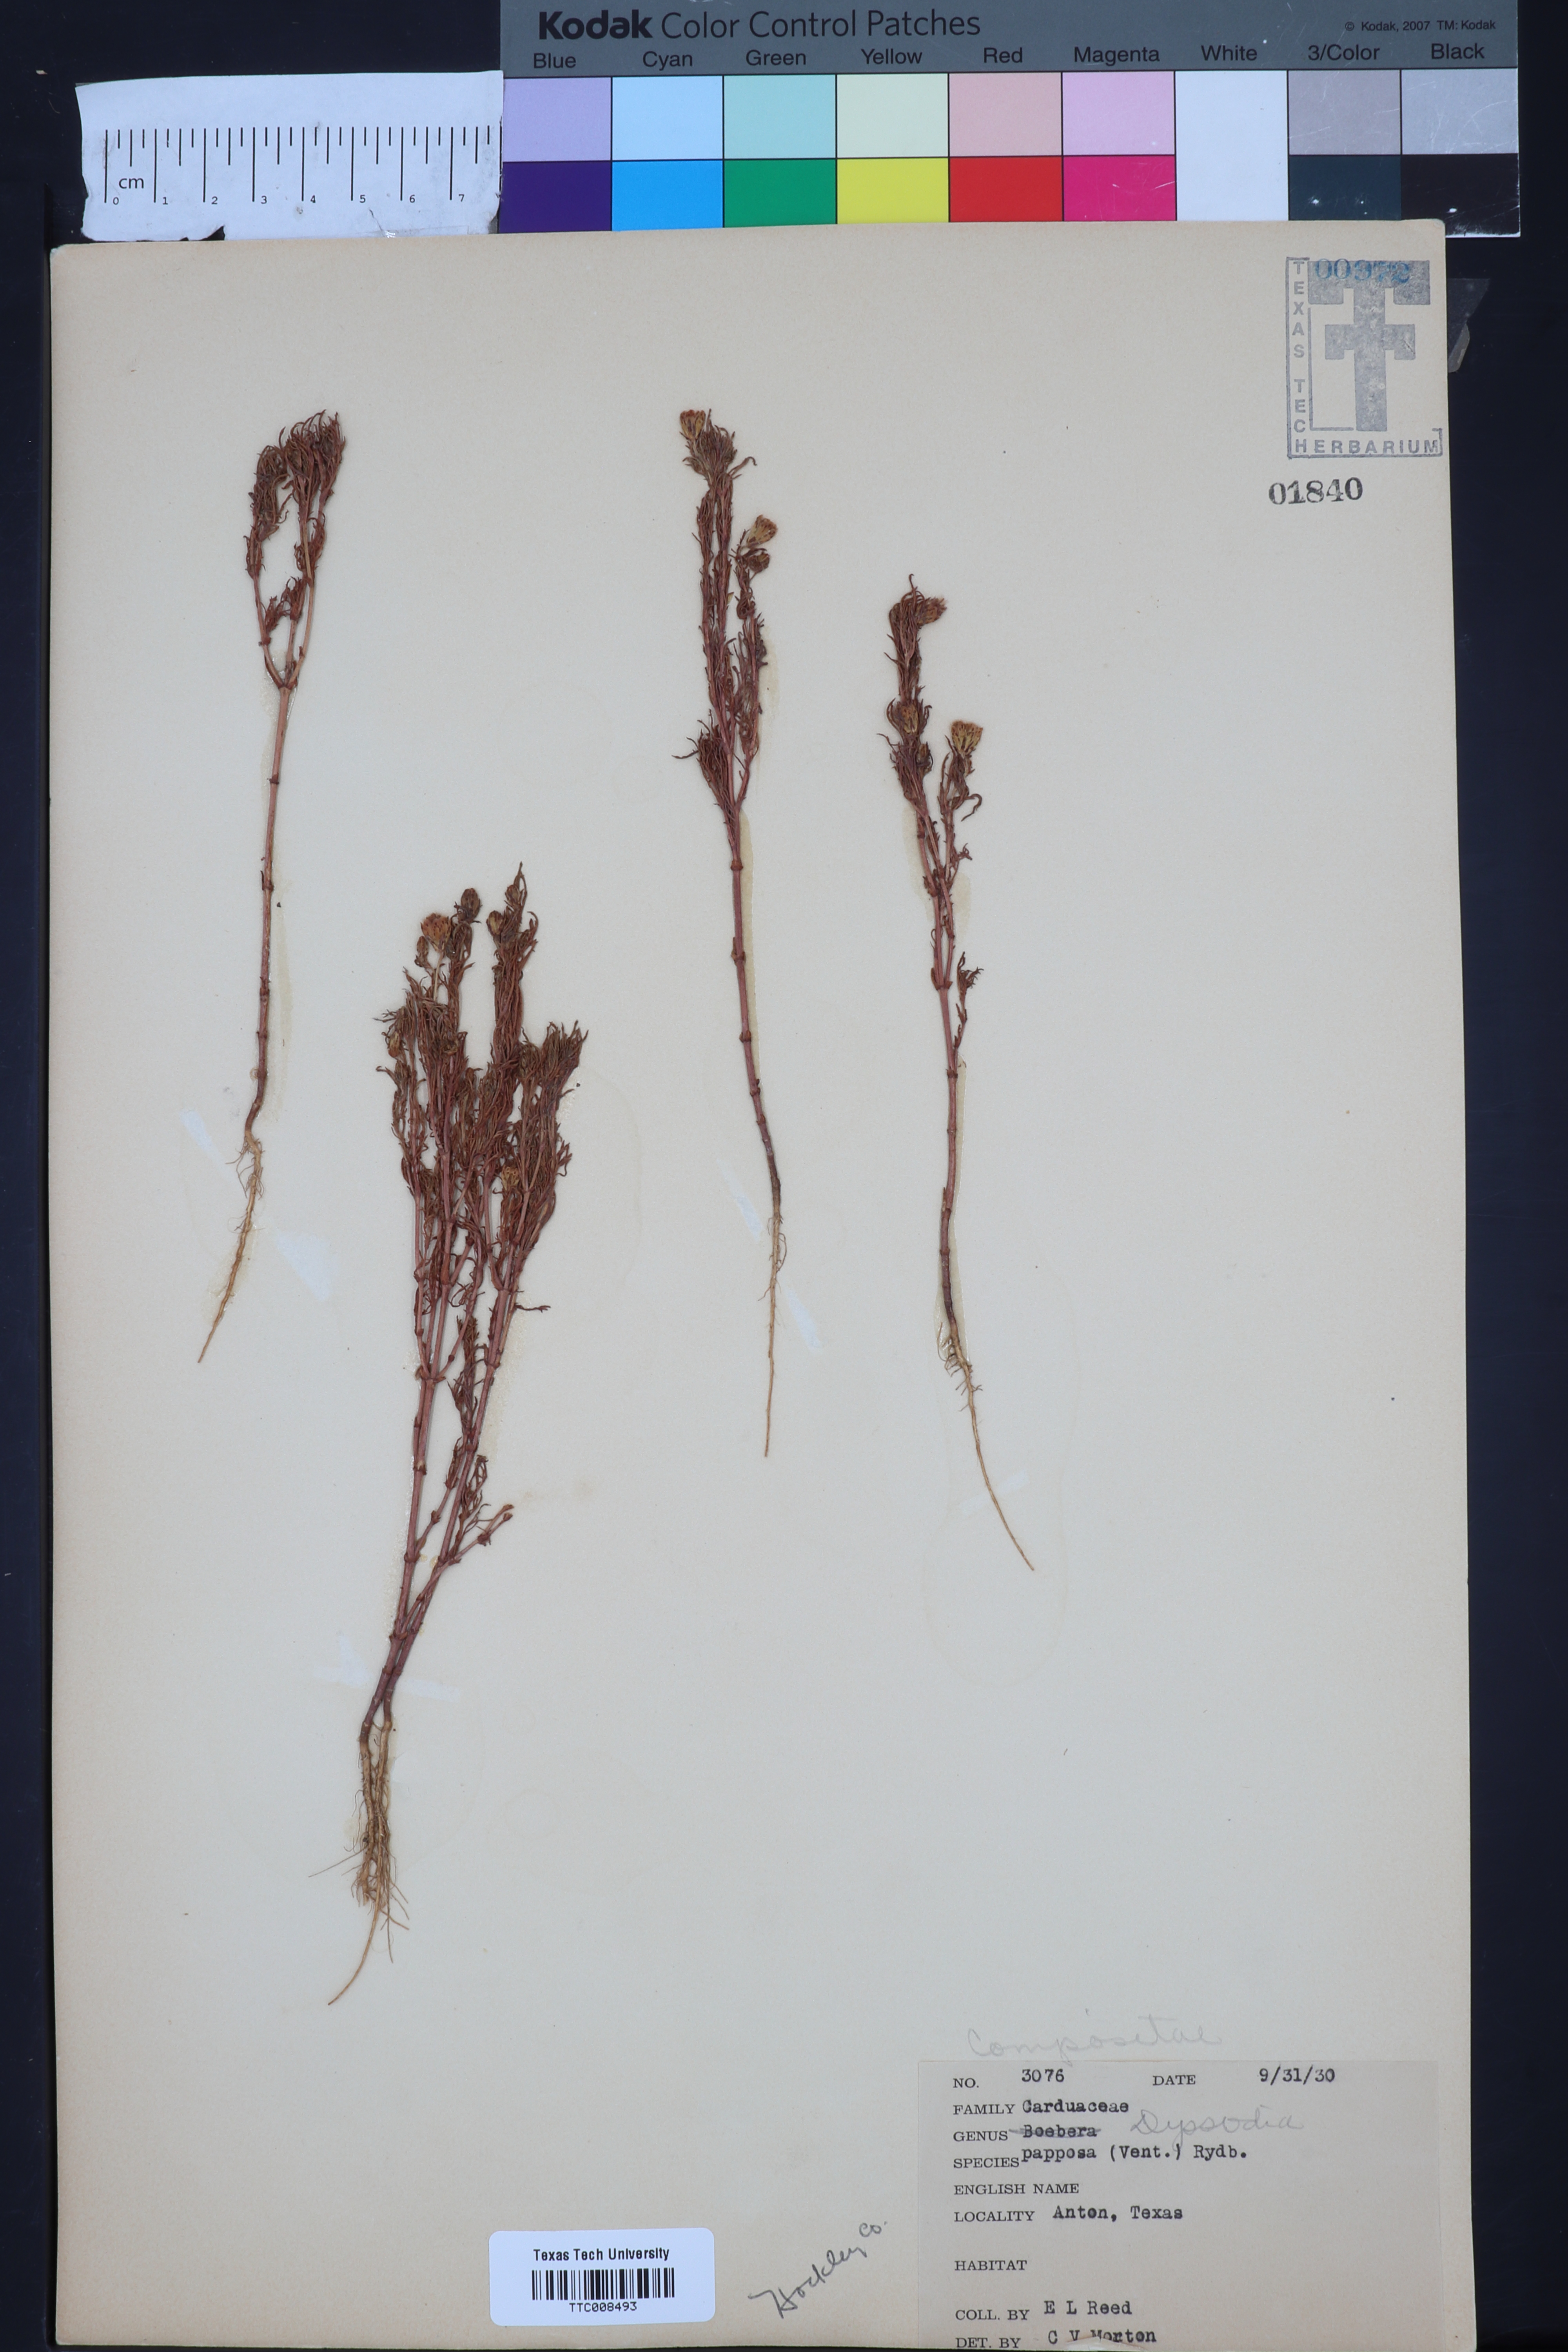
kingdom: Plantae
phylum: Tracheophyta
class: Magnoliopsida
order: Asterales
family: Asteraceae
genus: Dyssodia
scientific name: Dyssodia papposa
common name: Dogweed
